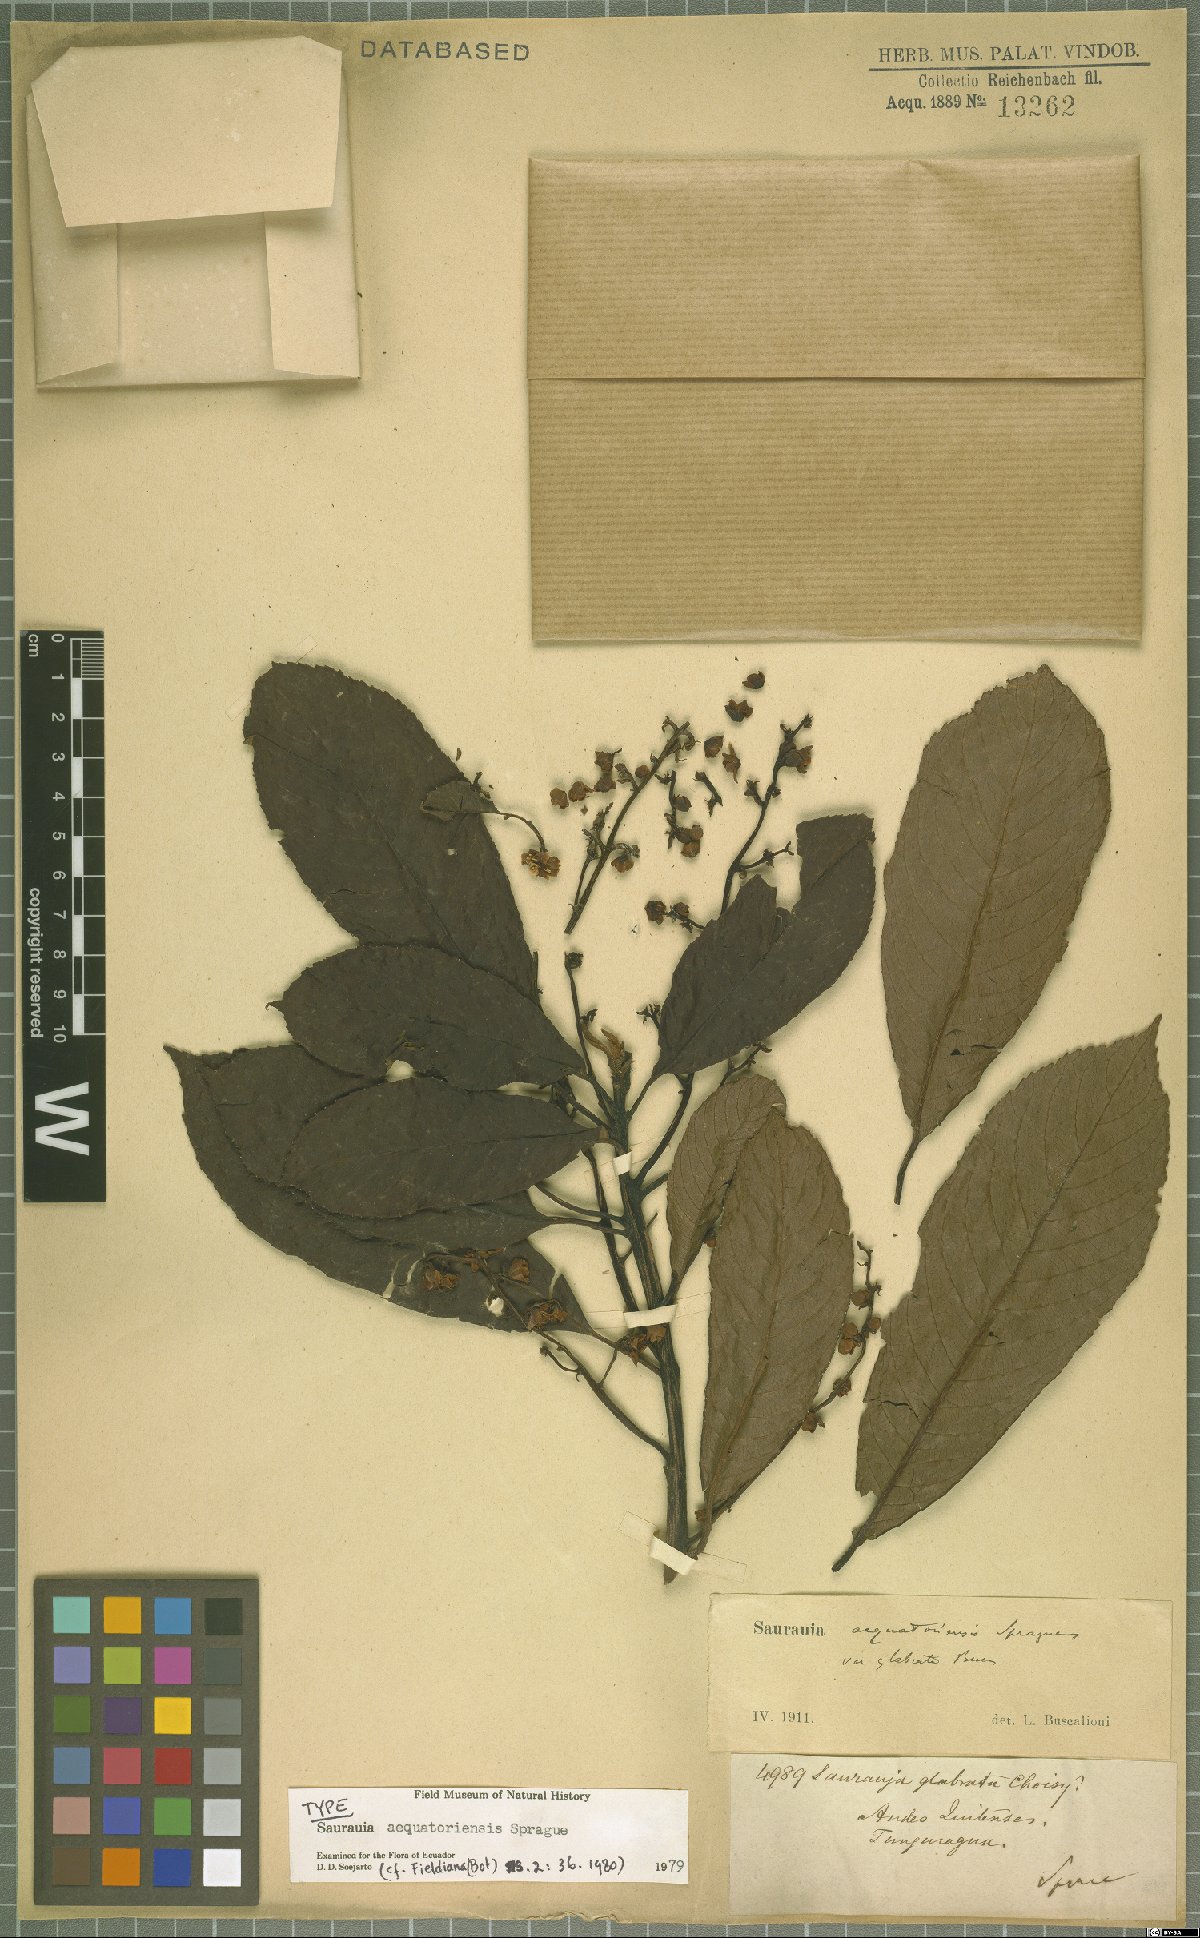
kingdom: Plantae
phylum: Tracheophyta
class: Magnoliopsida
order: Ericales
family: Actinidiaceae
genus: Saurauia
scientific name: Saurauia aequatoriensis
